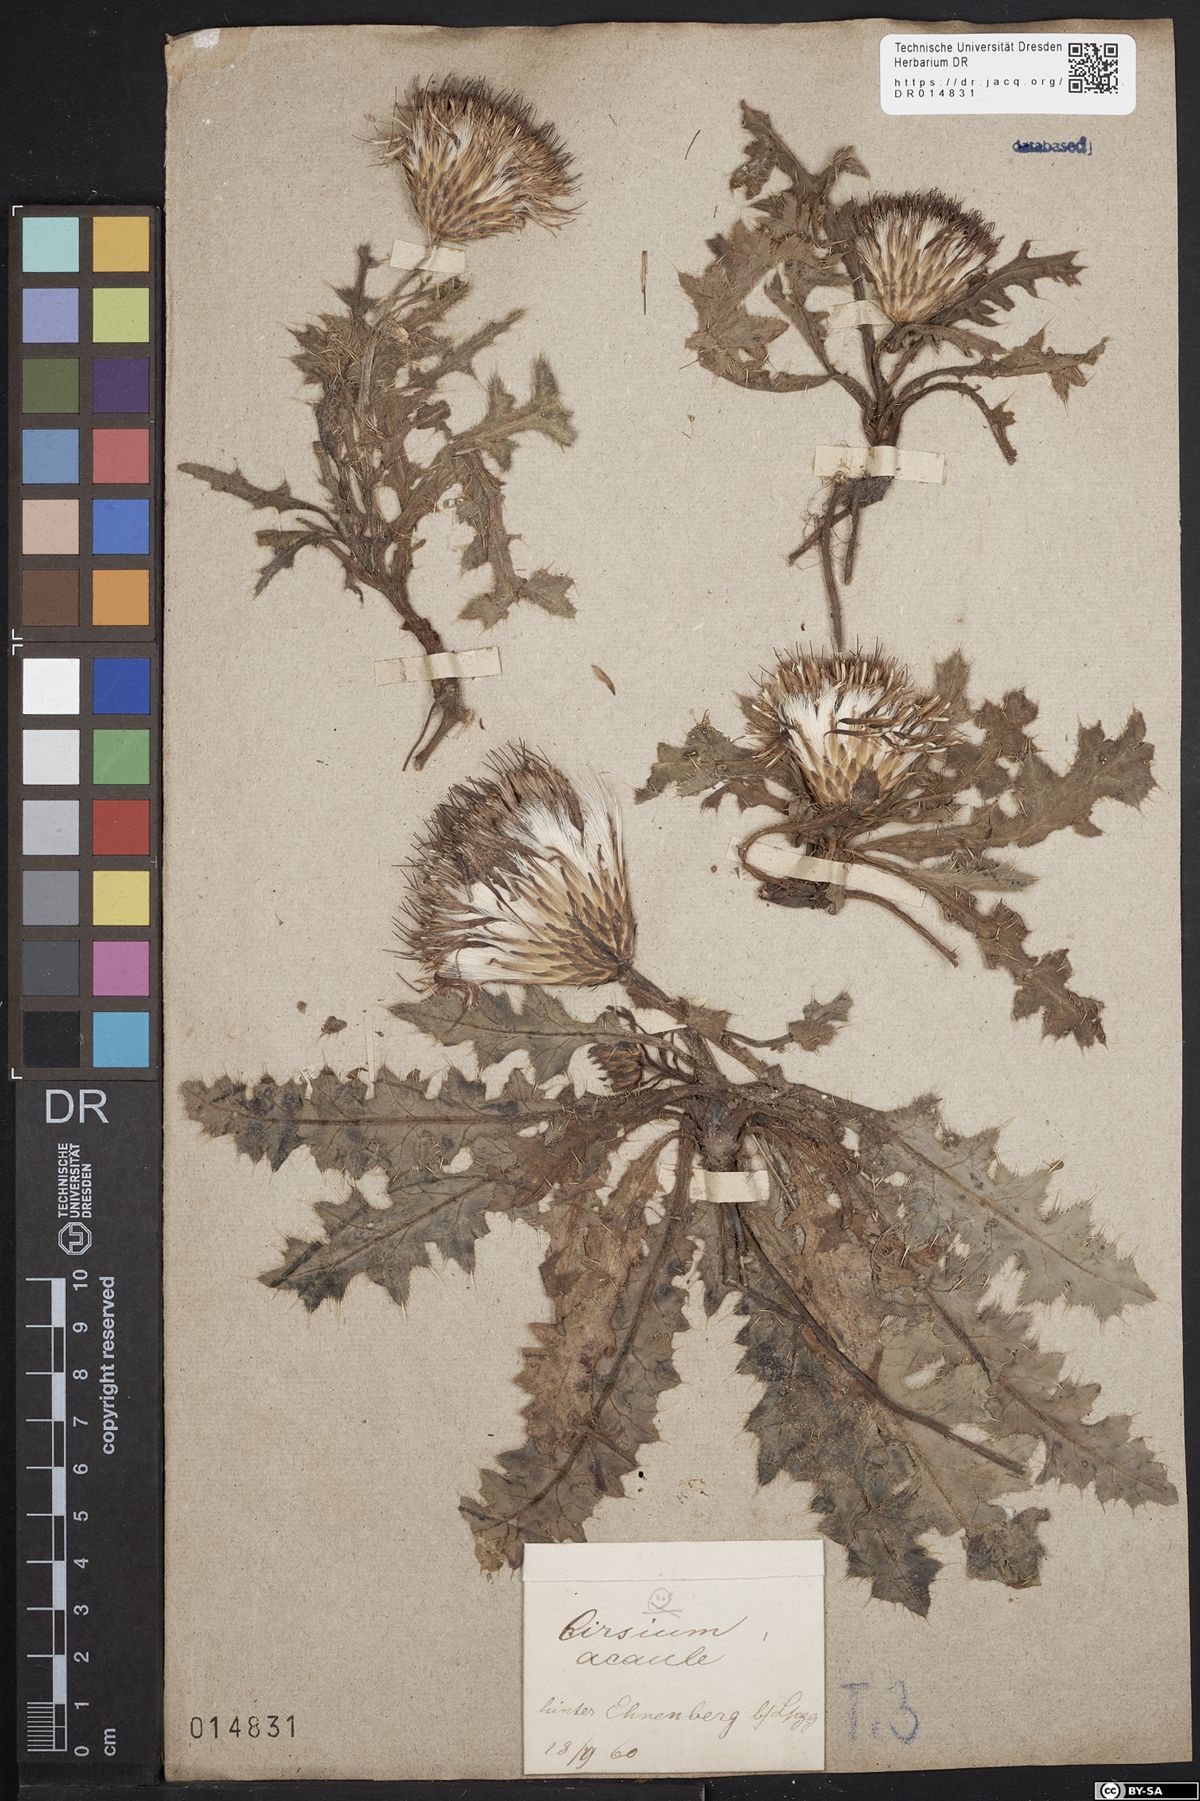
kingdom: Plantae
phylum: Tracheophyta
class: Magnoliopsida
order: Asterales
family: Asteraceae
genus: Cirsium
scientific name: Cirsium acaule
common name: Dwarf thistle
